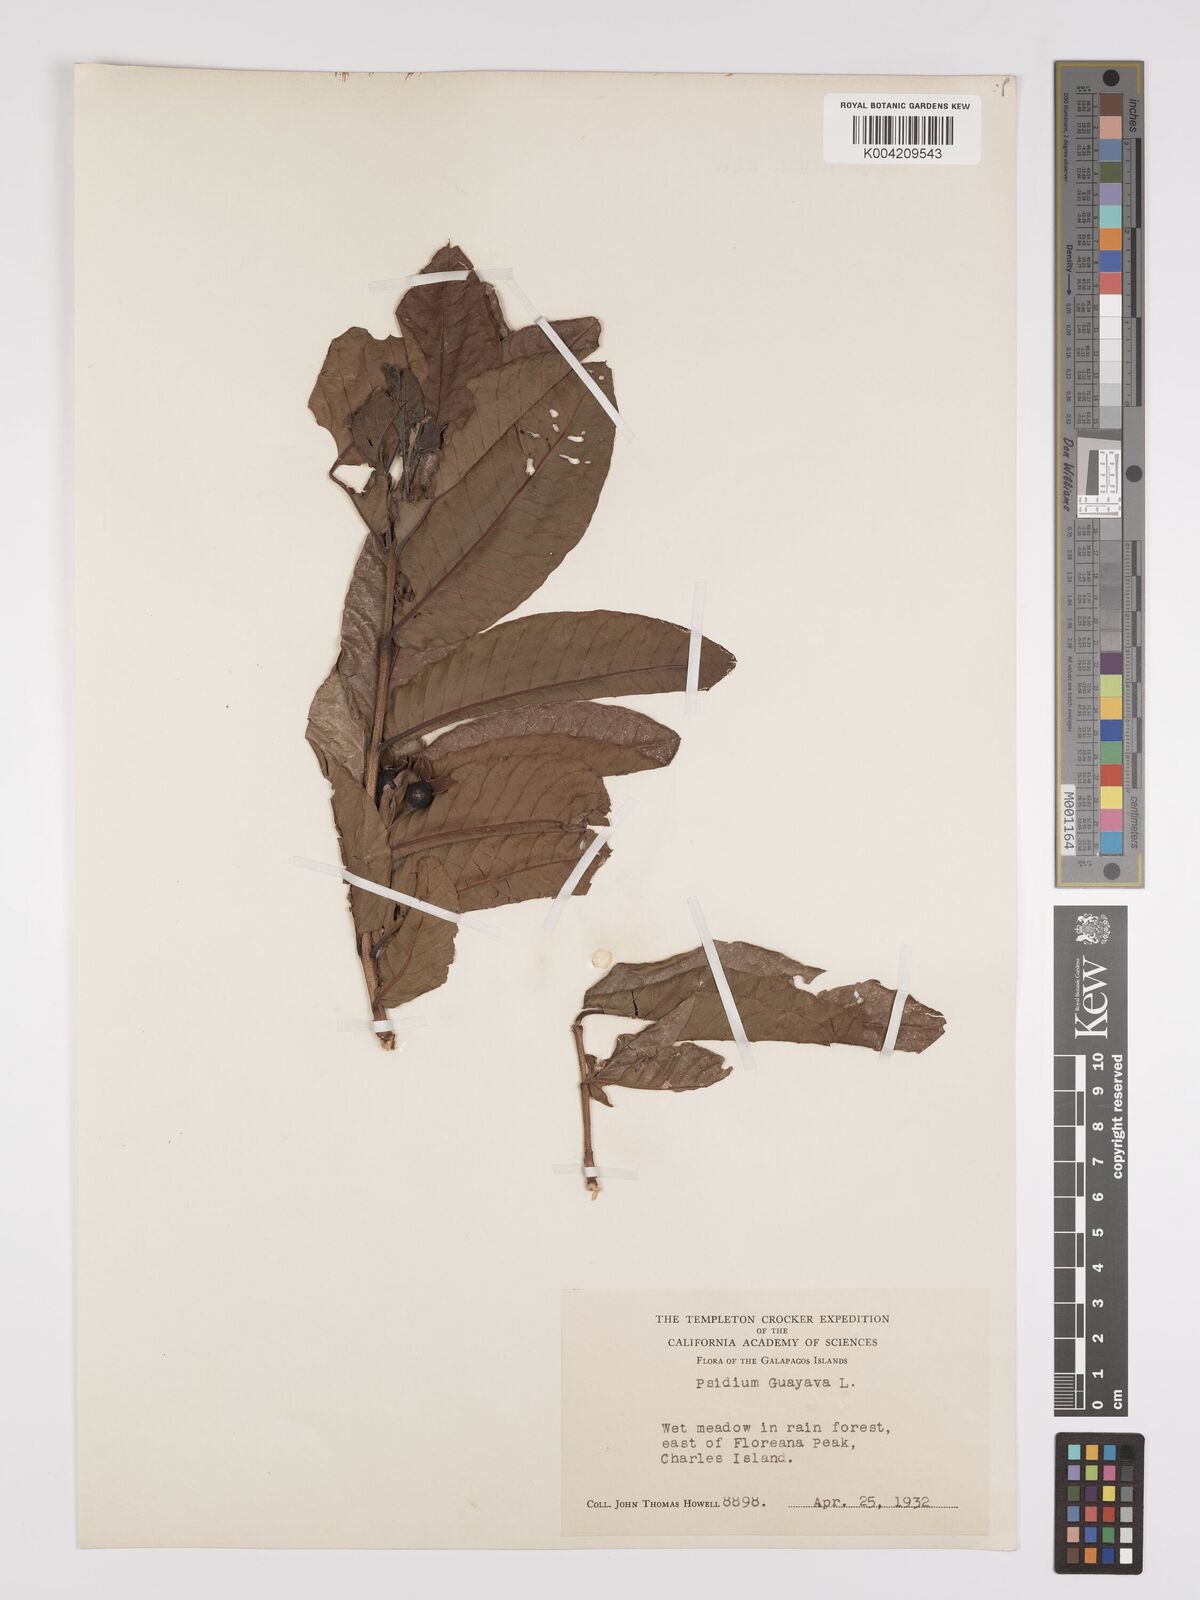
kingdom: Plantae
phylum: Tracheophyta
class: Magnoliopsida
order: Myrtales
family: Myrtaceae
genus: Psidium
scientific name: Psidium guajava
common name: Guava
